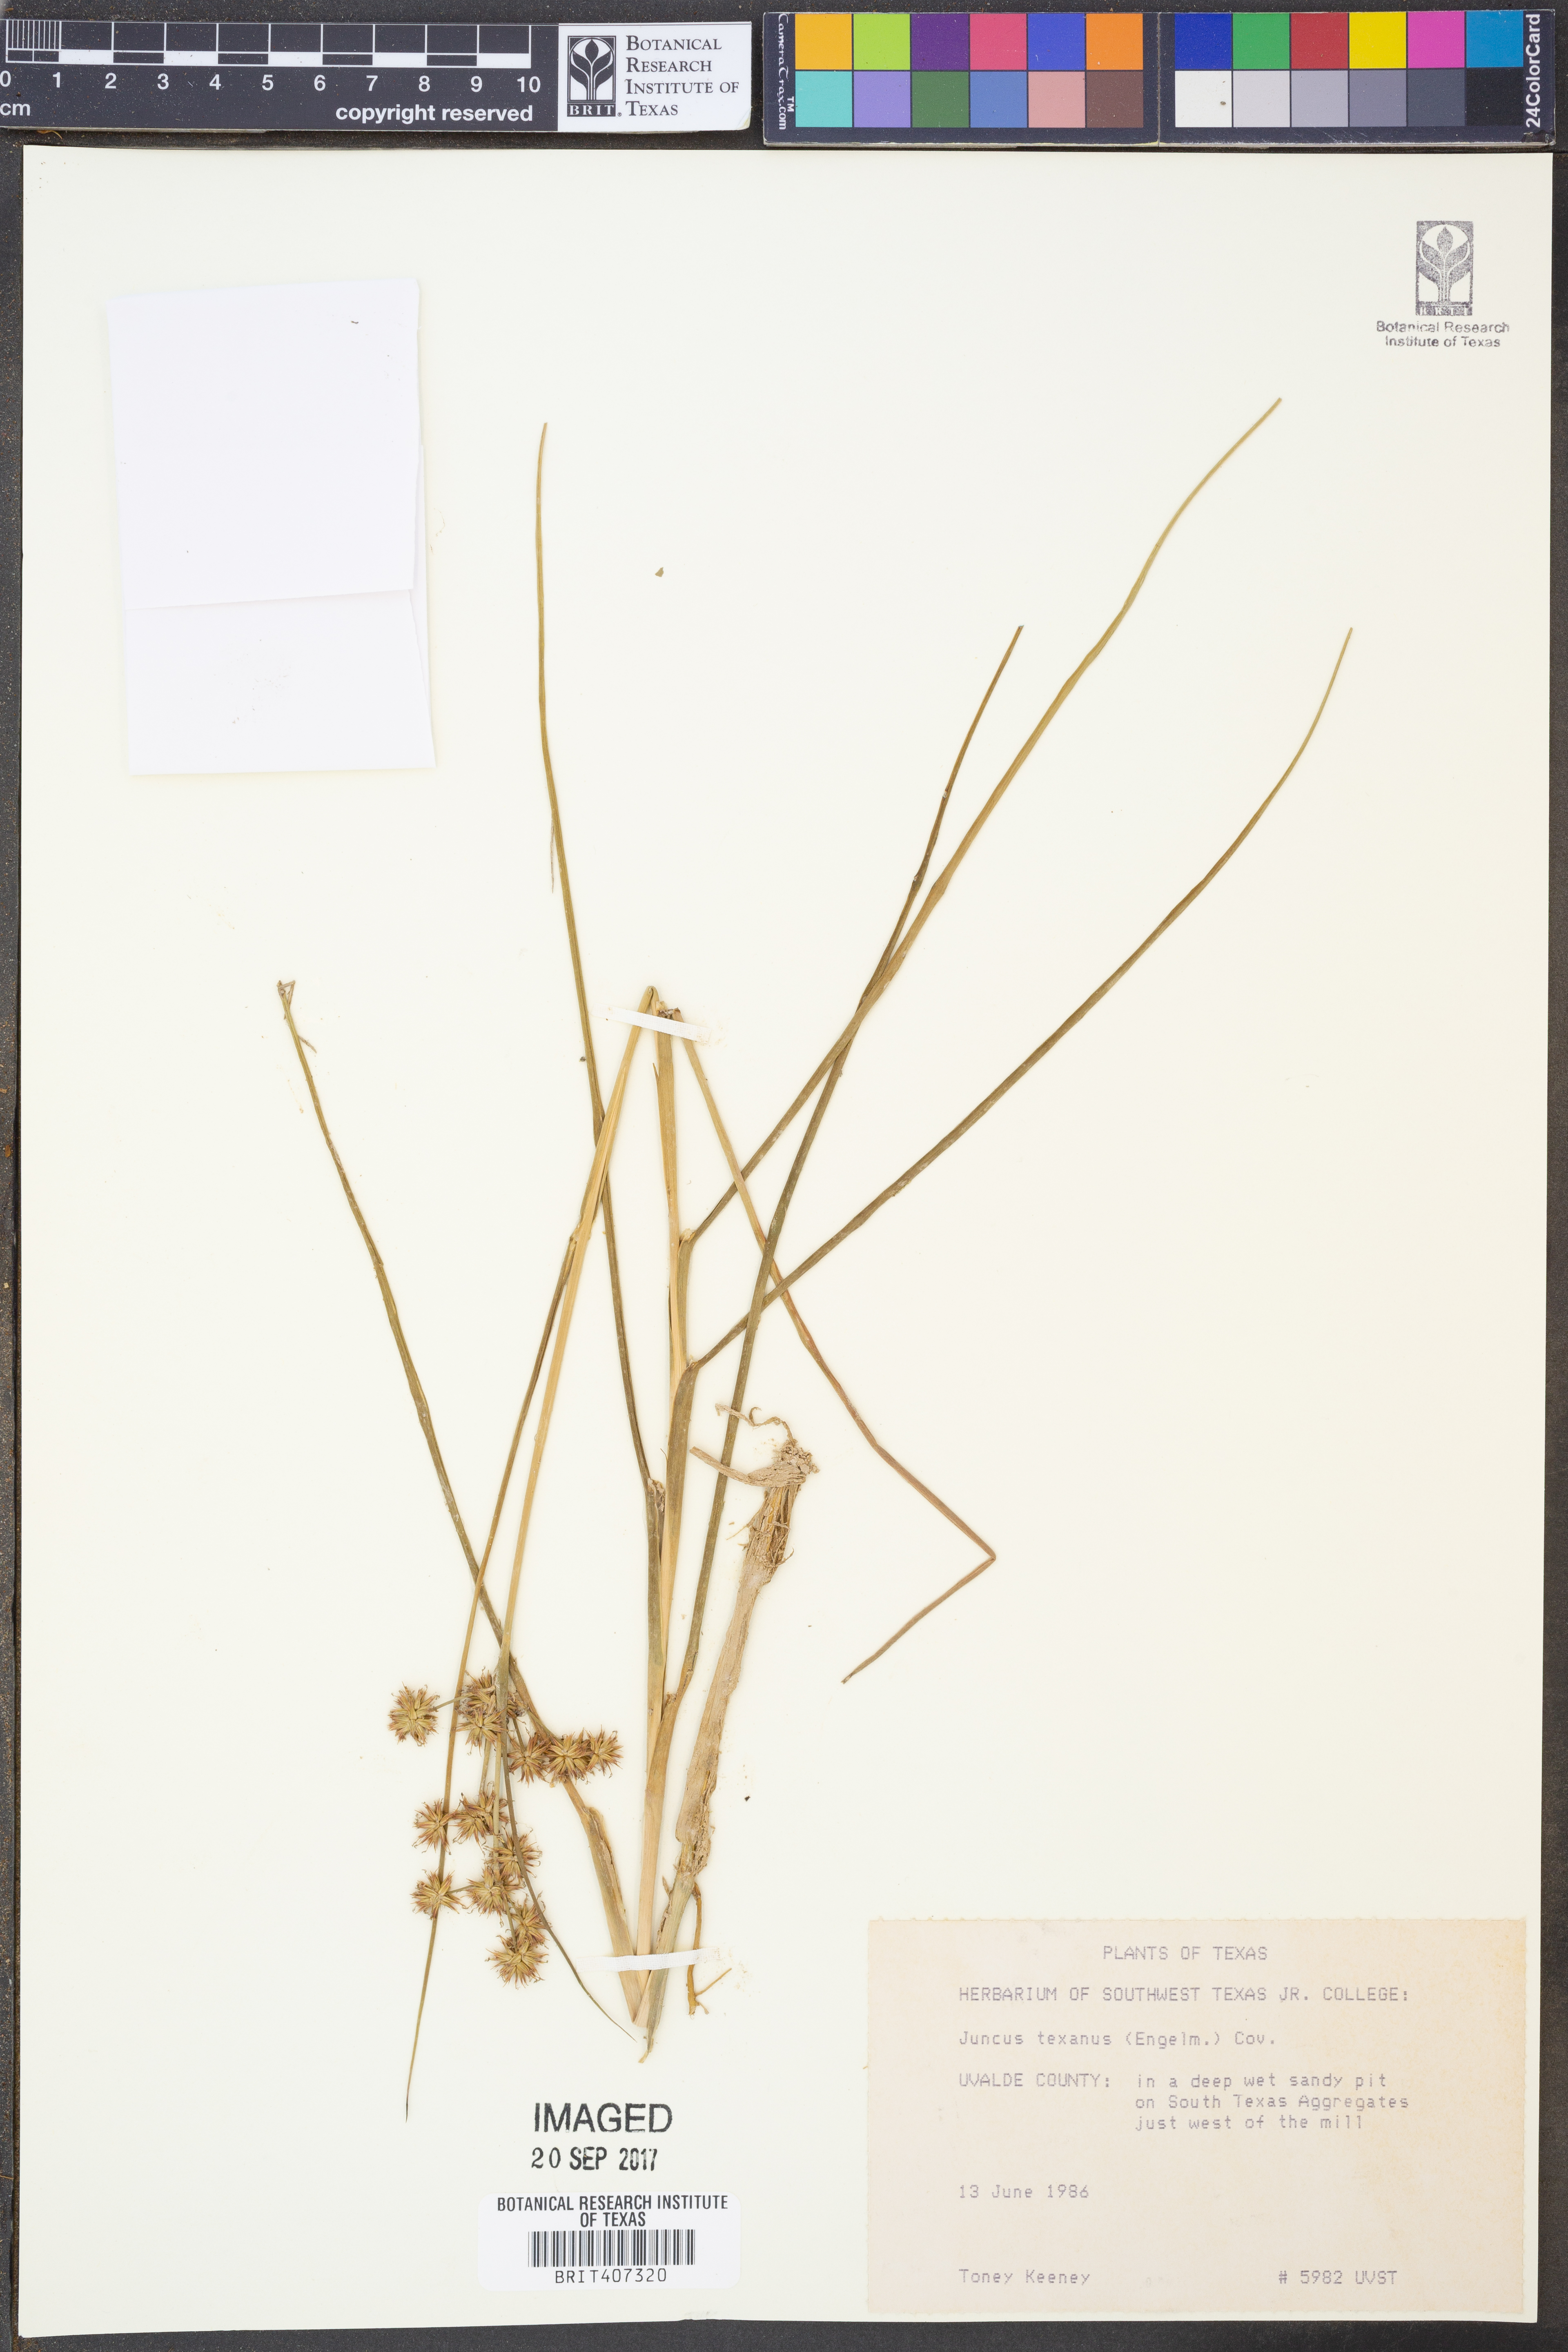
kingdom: Plantae
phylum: Tracheophyta
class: Liliopsida
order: Poales
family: Juncaceae
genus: Juncus
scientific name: Juncus texanus
